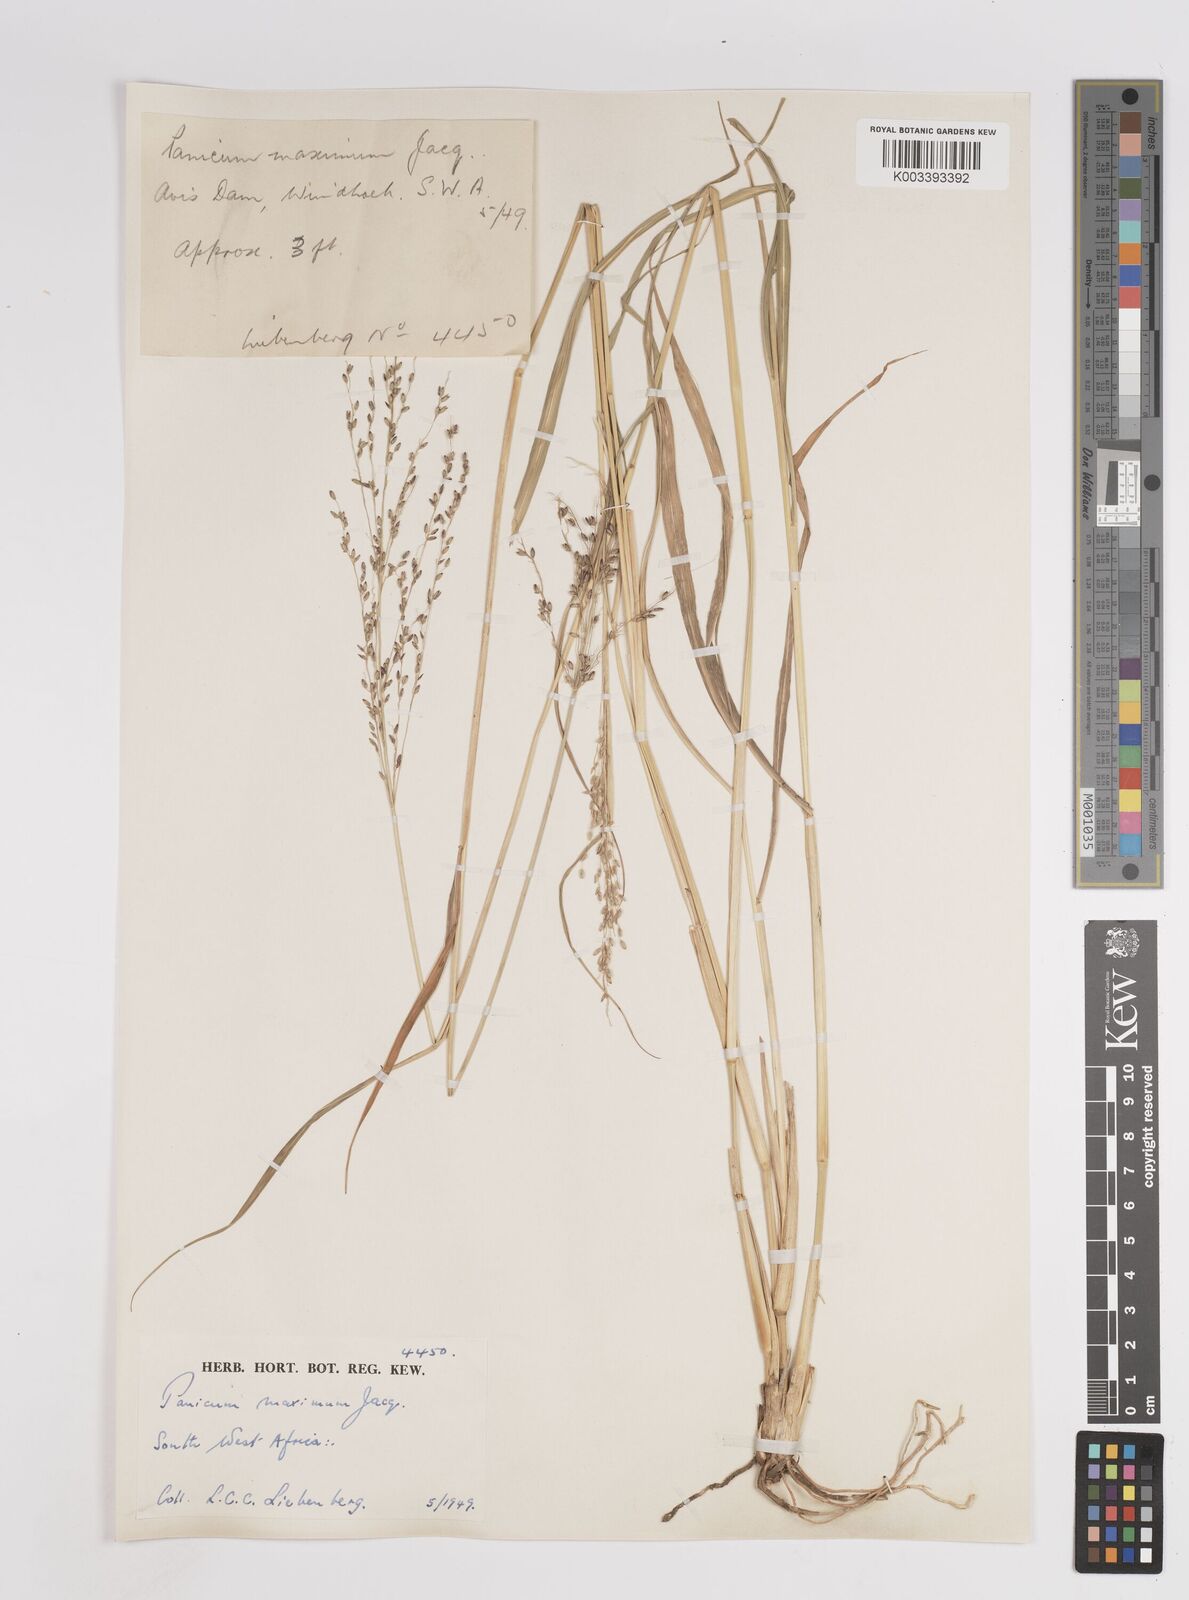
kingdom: Plantae
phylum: Tracheophyta
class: Liliopsida
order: Poales
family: Poaceae
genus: Megathyrsus
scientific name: Megathyrsus maximus
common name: Guineagrass
